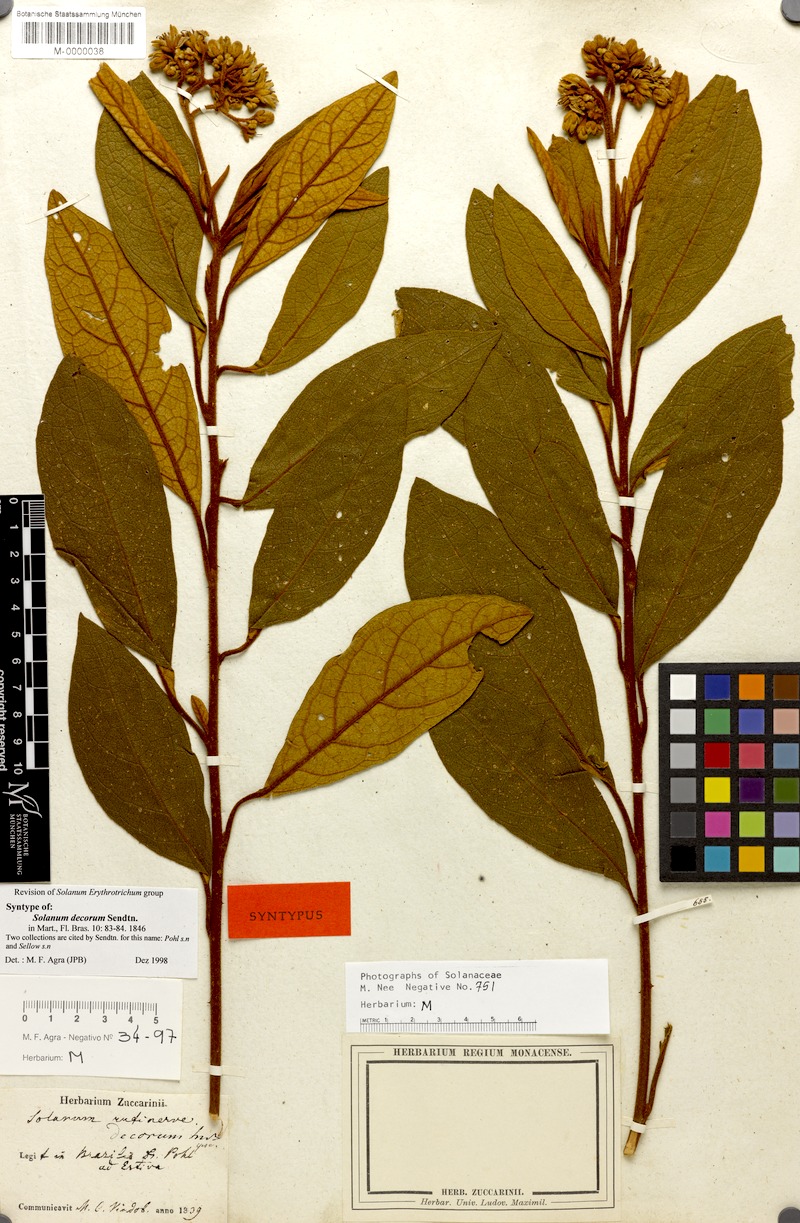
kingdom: Plantae
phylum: Tracheophyta
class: Magnoliopsida
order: Solanales
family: Solanaceae
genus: Solanum
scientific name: Solanum decorum
